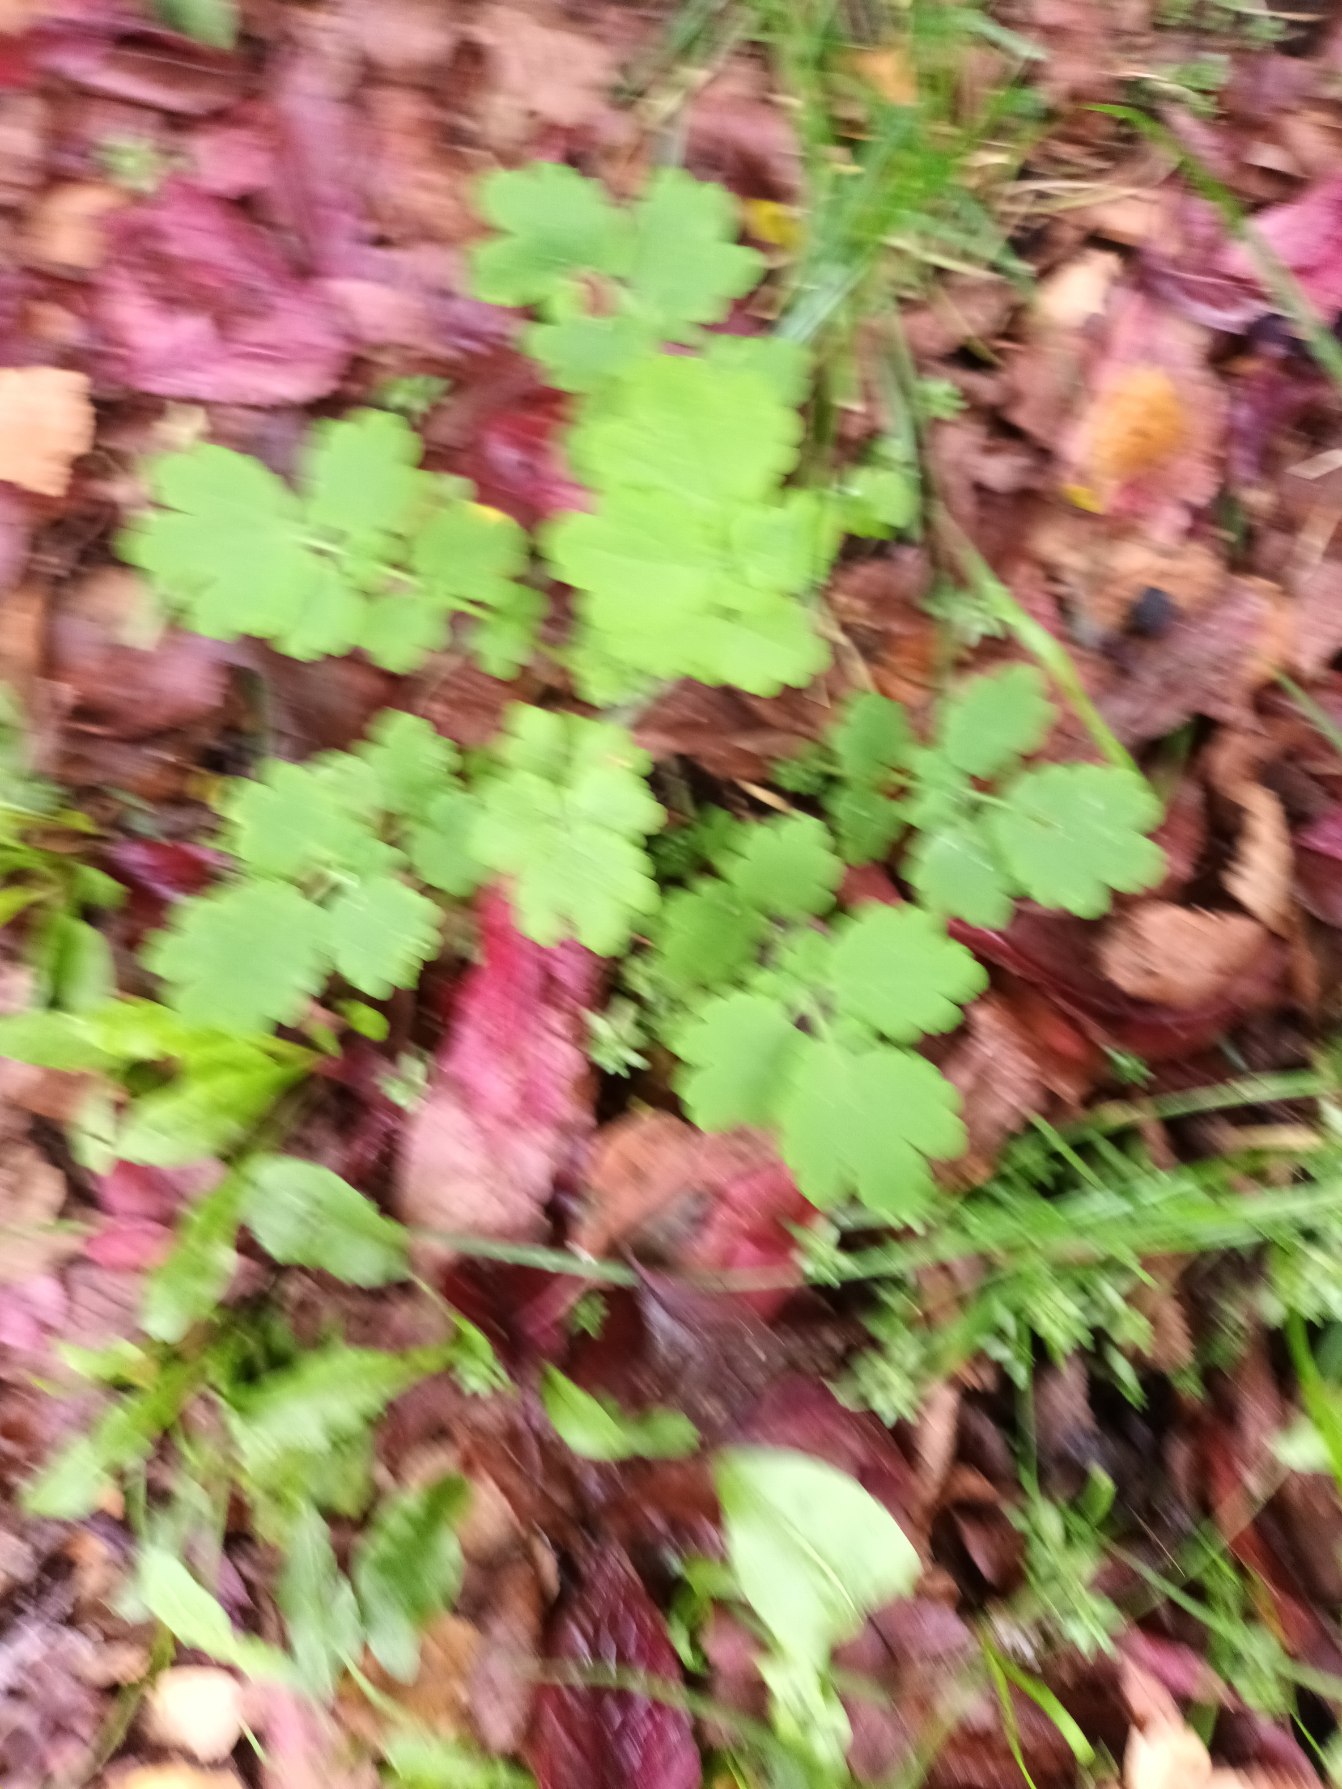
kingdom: Plantae
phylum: Tracheophyta
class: Magnoliopsida
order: Ranunculales
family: Papaveraceae
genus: Chelidonium
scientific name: Chelidonium majus
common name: Svaleurt
